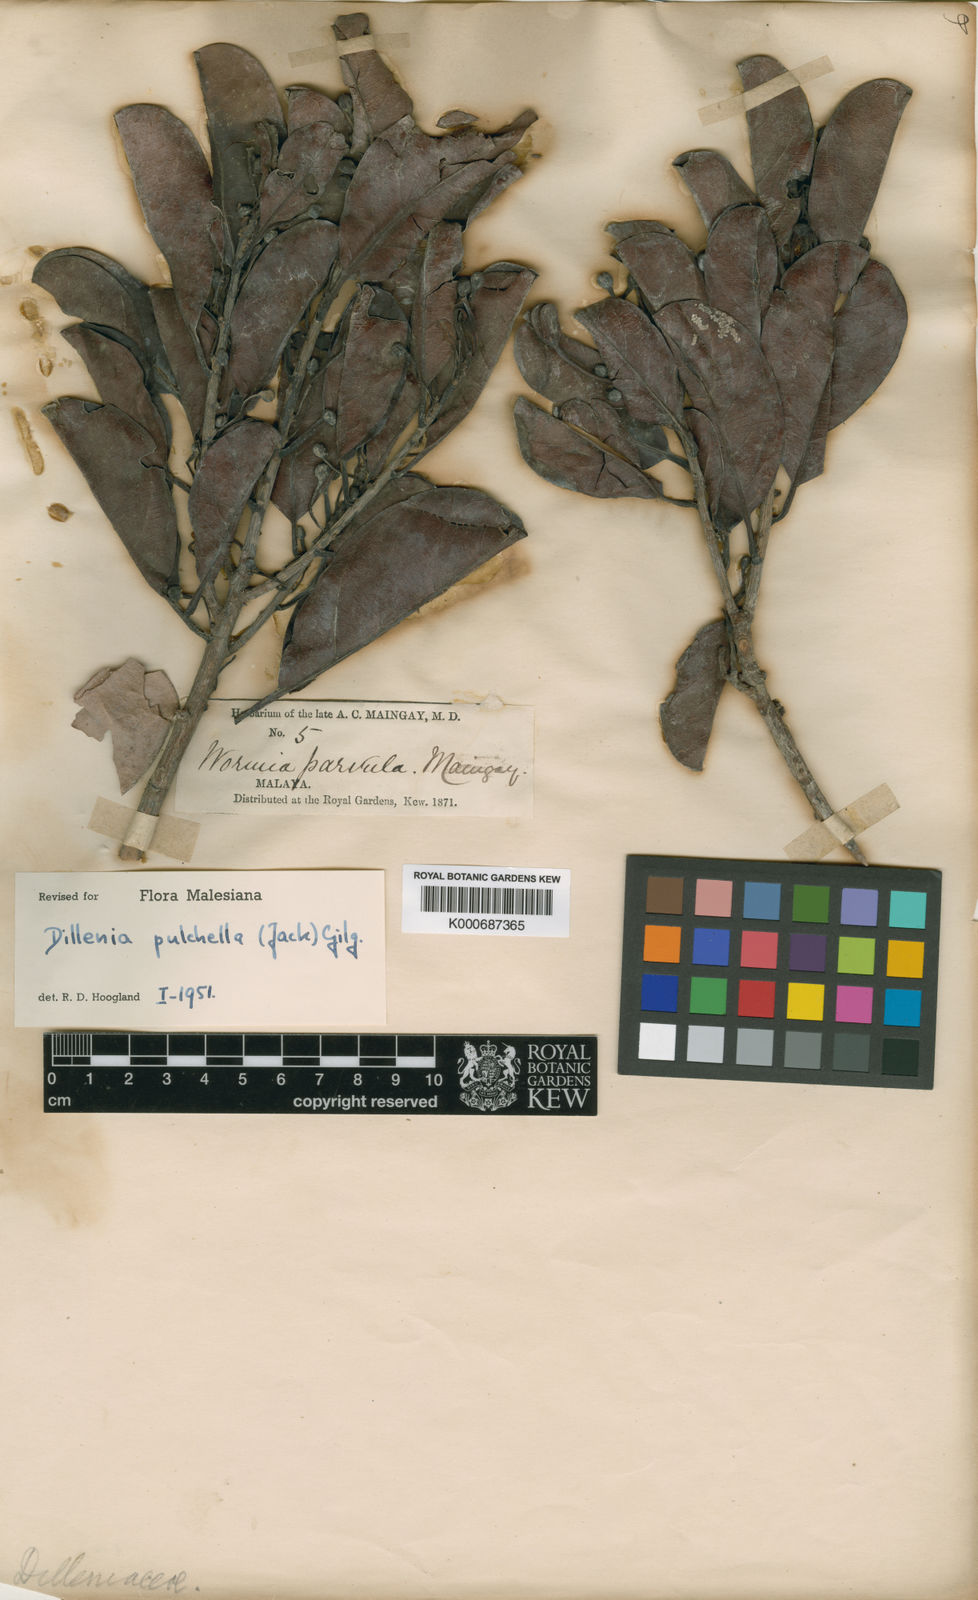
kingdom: Plantae
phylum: Tracheophyta
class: Magnoliopsida
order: Dilleniales
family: Dilleniaceae
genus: Dillenia
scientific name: Dillenia pulchella
